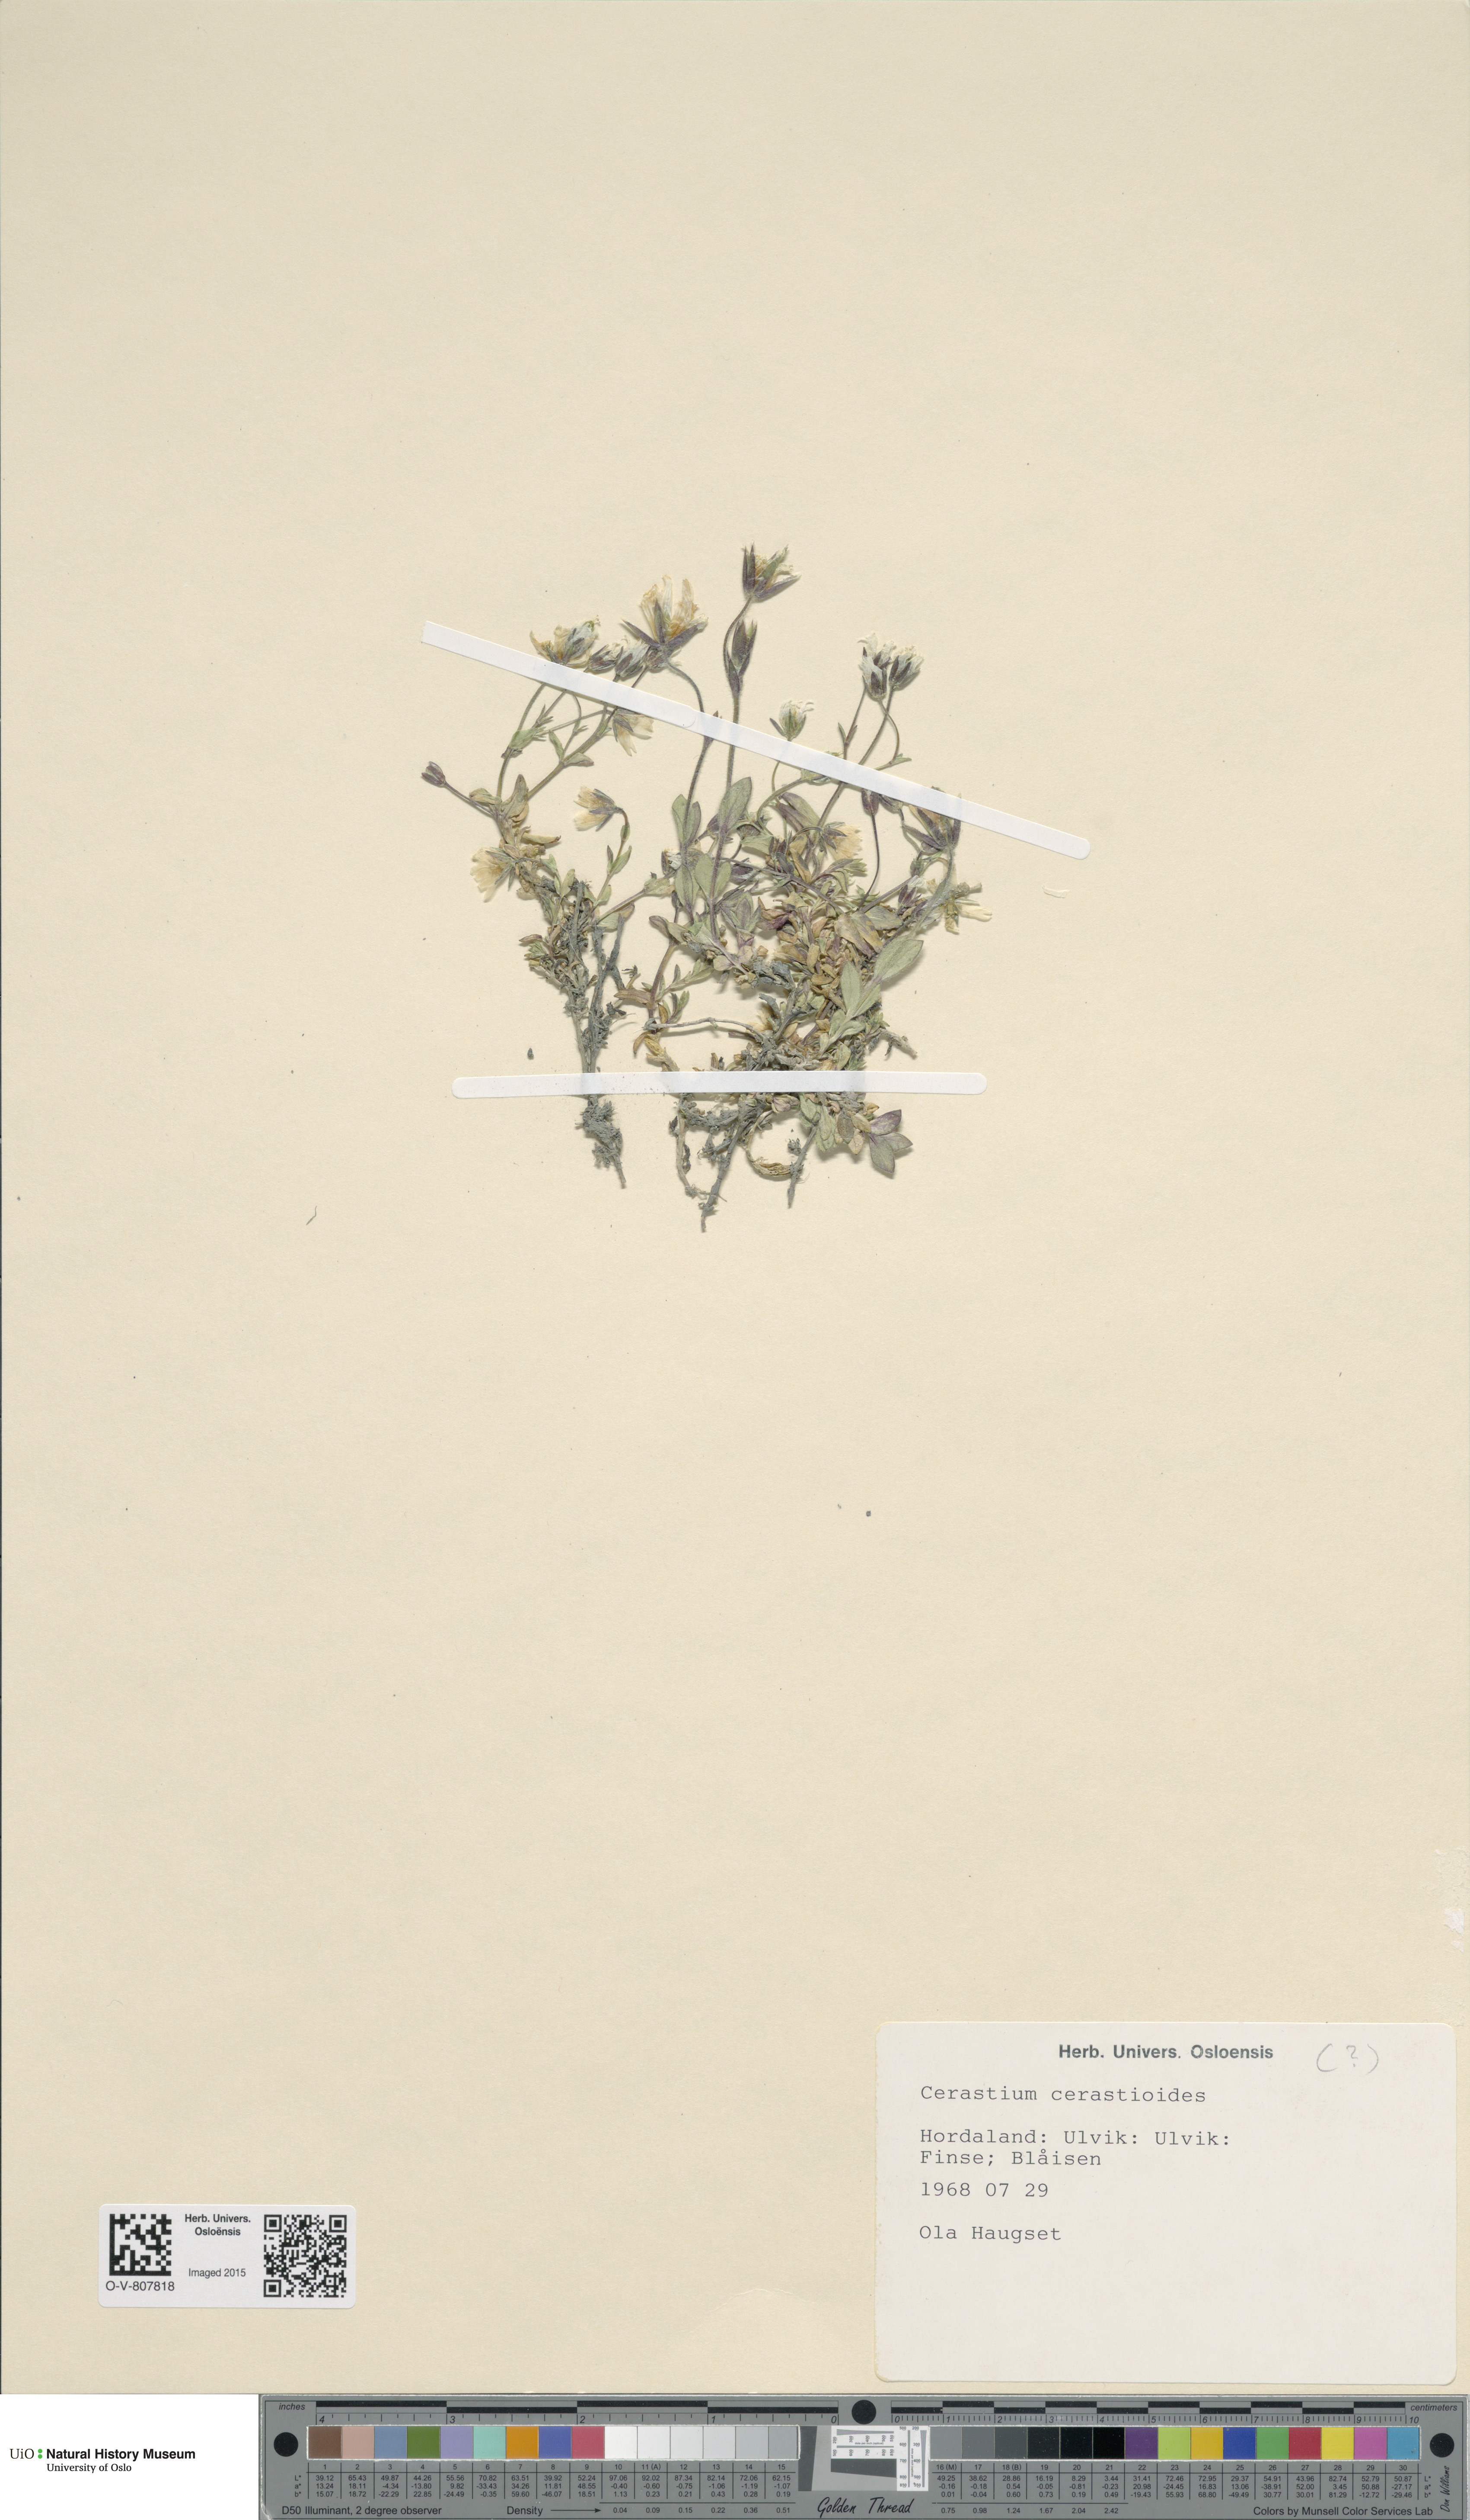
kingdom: Plantae
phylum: Tracheophyta
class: Magnoliopsida
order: Caryophyllales
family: Caryophyllaceae
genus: Dichodon
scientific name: Dichodon cerastoides
